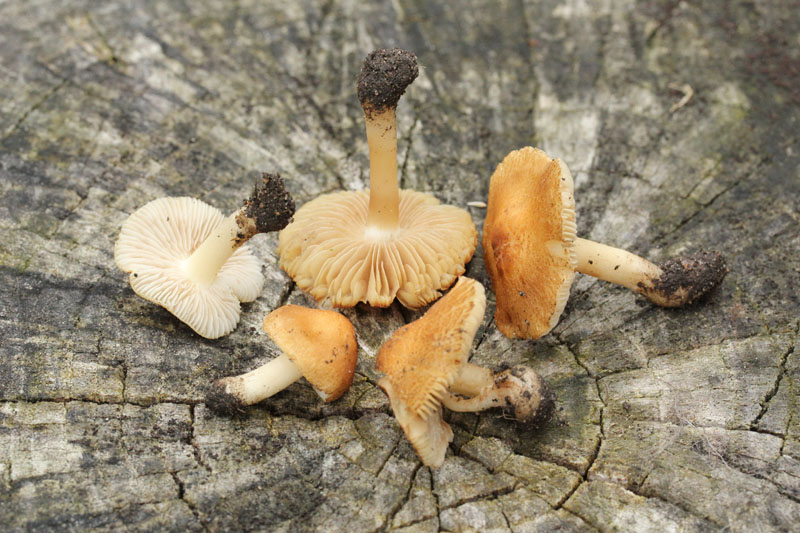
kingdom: Fungi
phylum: Basidiomycota
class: Agaricomycetes
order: Agaricales
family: Inocybaceae
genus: Inocybe
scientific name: Inocybe langei
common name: Langes trævlhat
